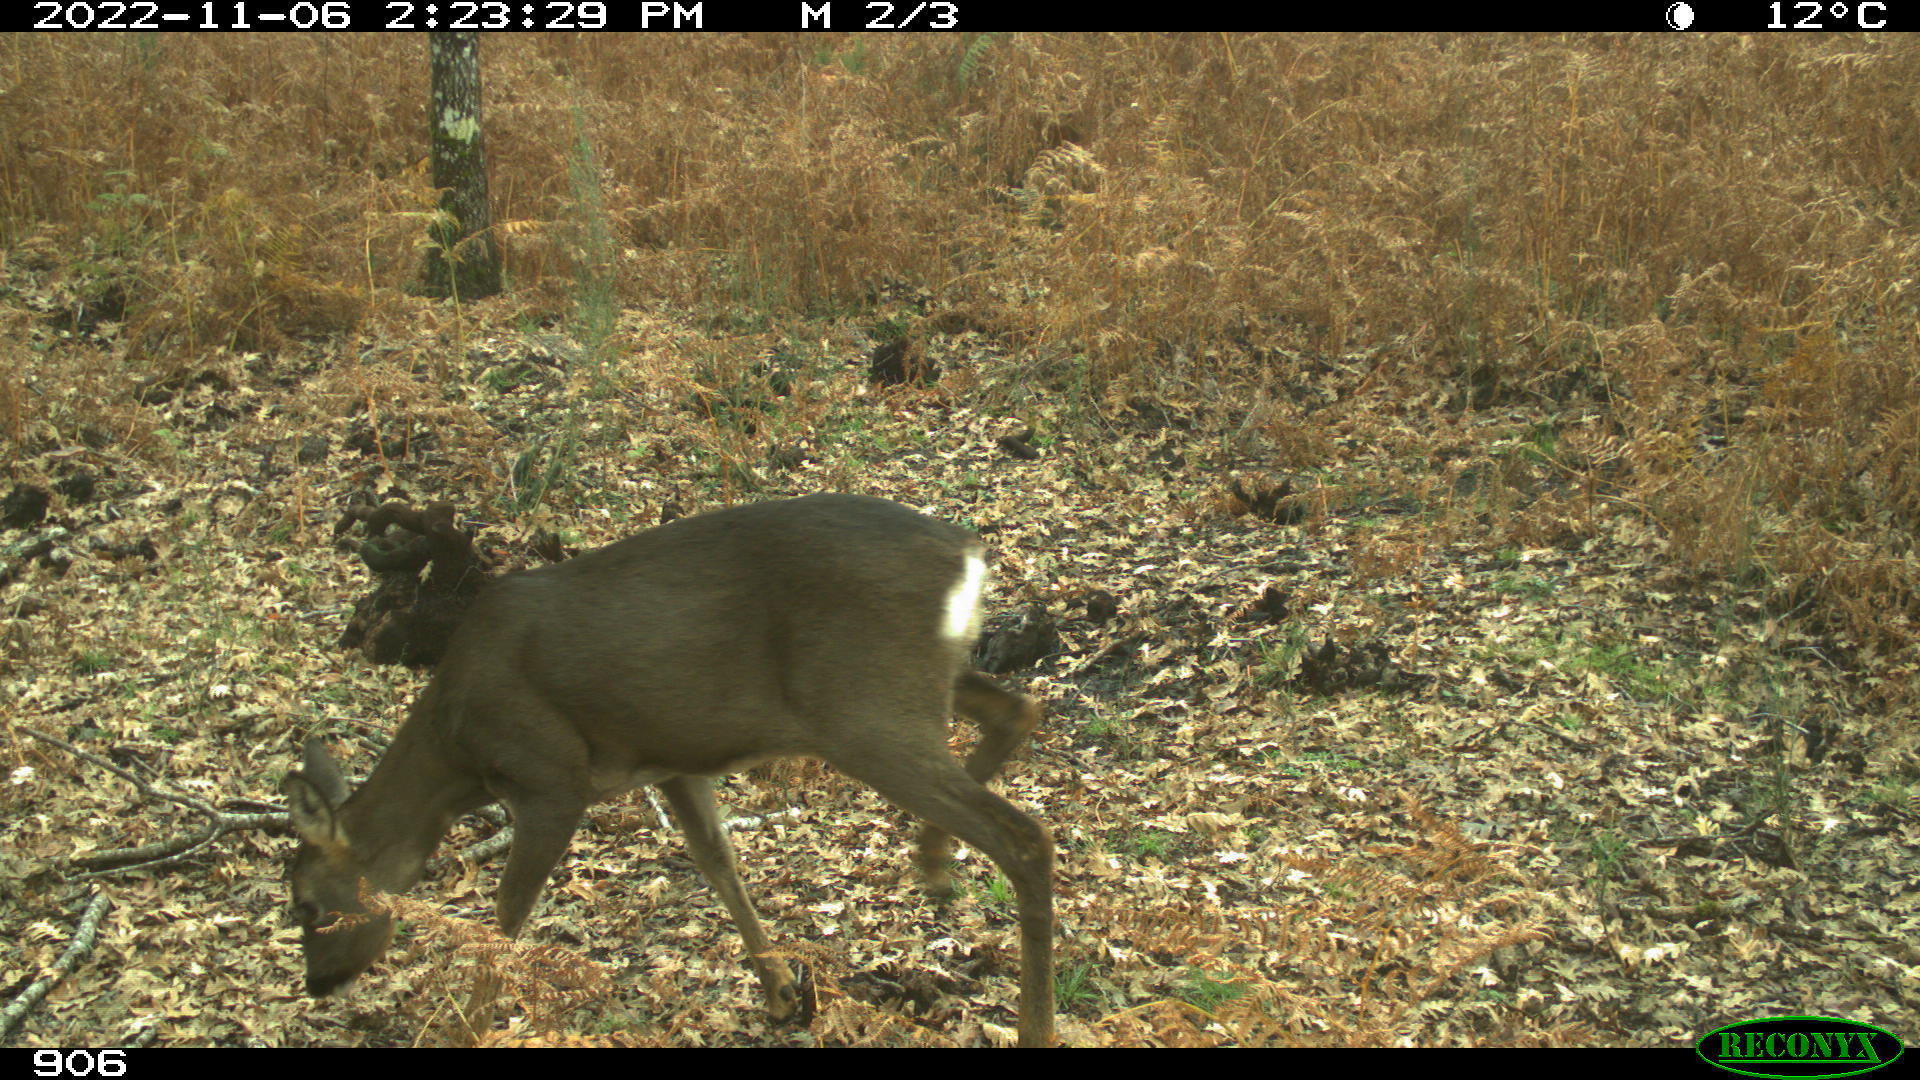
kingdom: Animalia
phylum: Chordata
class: Mammalia
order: Artiodactyla
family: Cervidae
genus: Capreolus
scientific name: Capreolus capreolus
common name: Western roe deer
